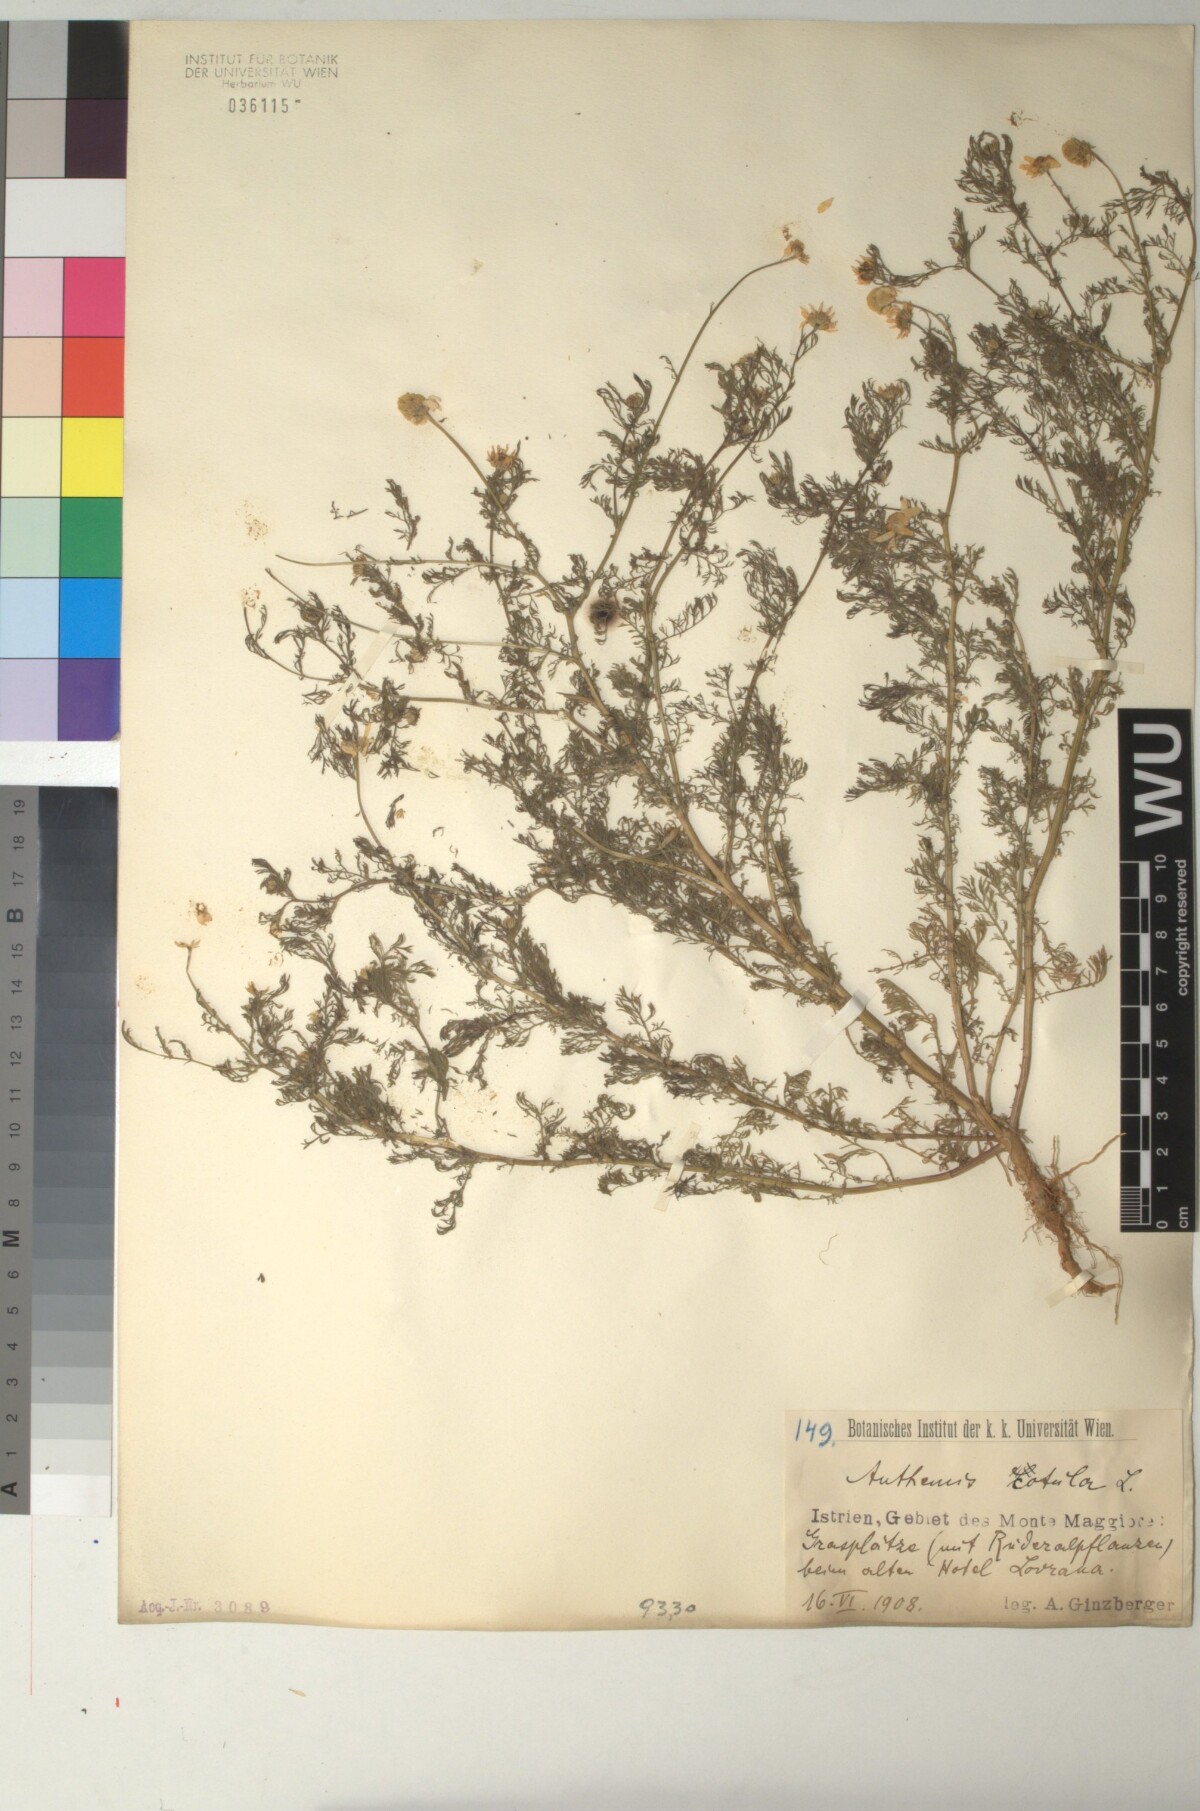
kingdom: Plantae
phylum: Tracheophyta
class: Magnoliopsida
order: Asterales
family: Asteraceae
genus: Anthemis
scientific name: Anthemis cotula
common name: Stinking chamomile
